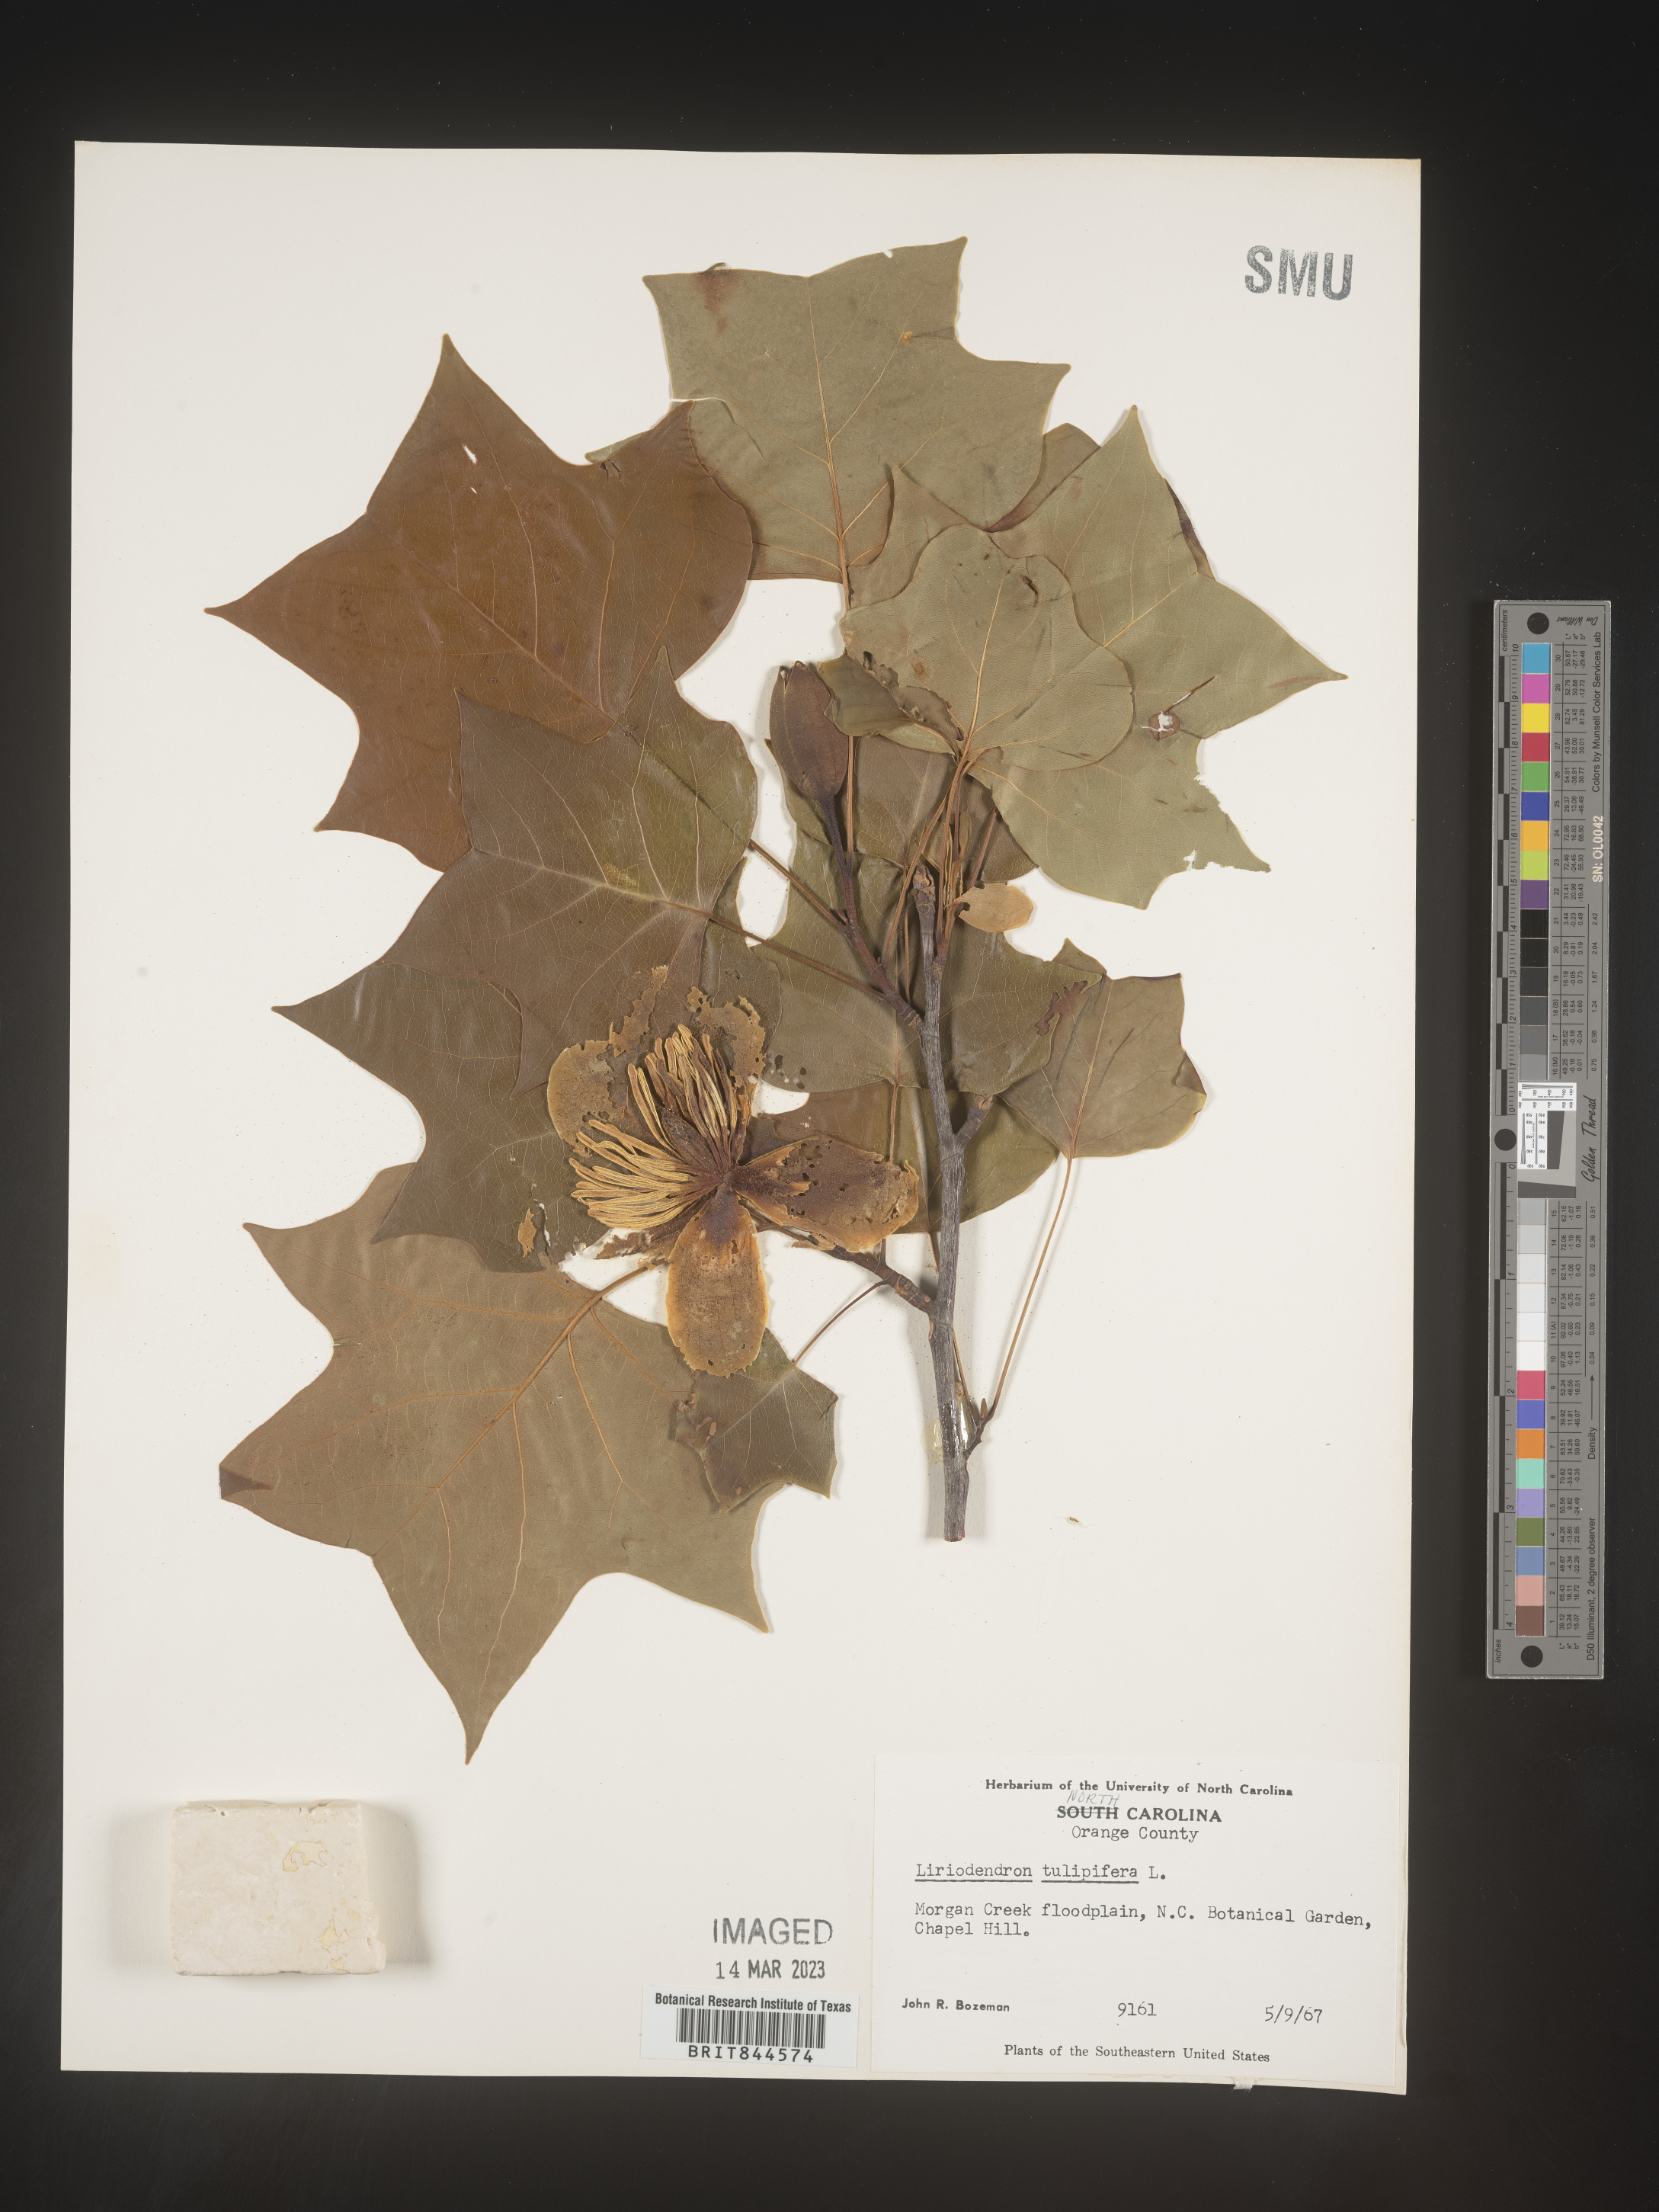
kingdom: Plantae
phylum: Tracheophyta
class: Magnoliopsida
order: Magnoliales
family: Magnoliaceae
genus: Liriodendron
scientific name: Liriodendron tulipifera
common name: Tulip tree
